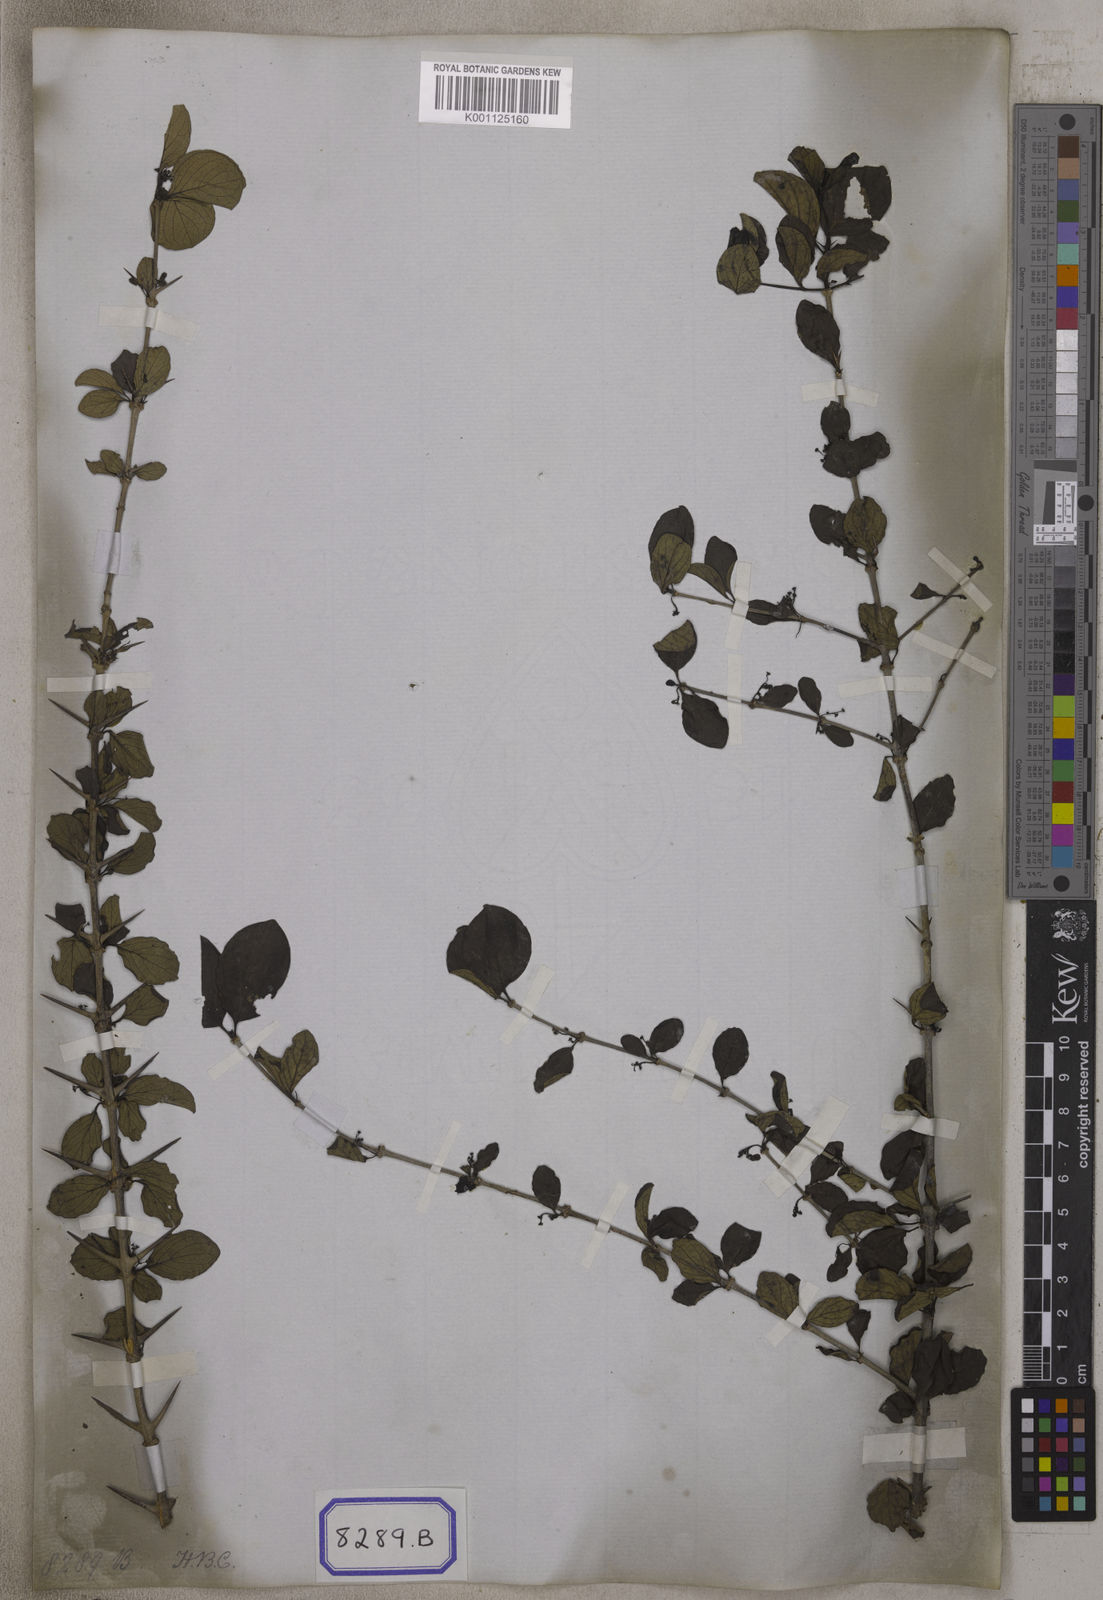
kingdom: Plantae
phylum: Tracheophyta
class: Magnoliopsida
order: Gentianales
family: Rubiaceae
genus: Canthium
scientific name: Canthium
